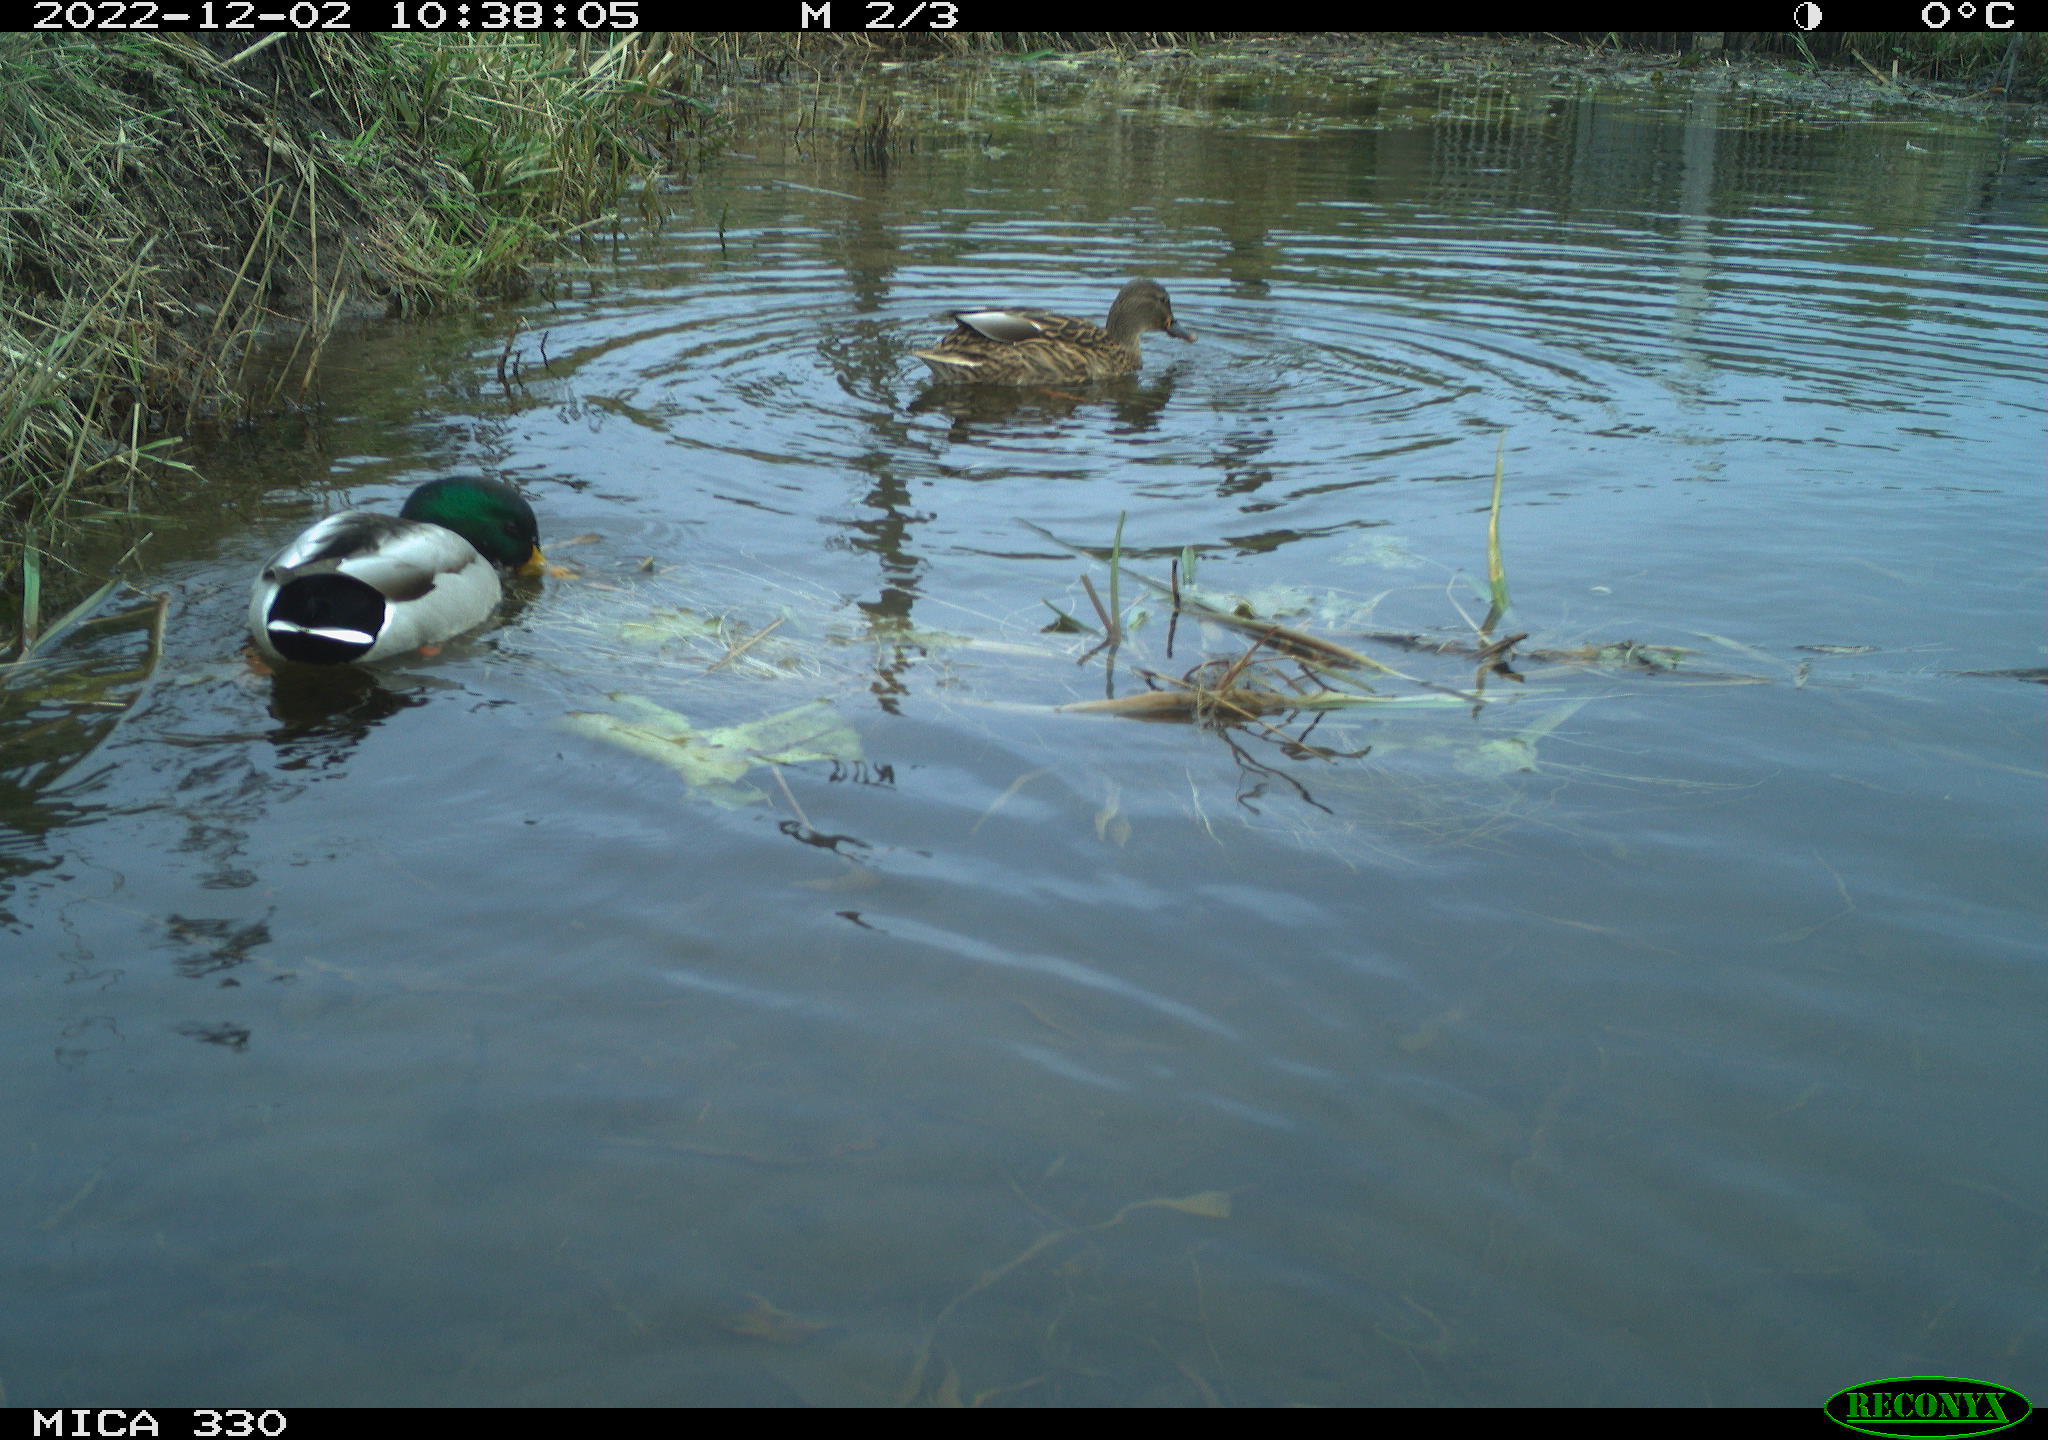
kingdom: Animalia
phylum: Chordata
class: Aves
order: Anseriformes
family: Anatidae
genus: Anas
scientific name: Anas
